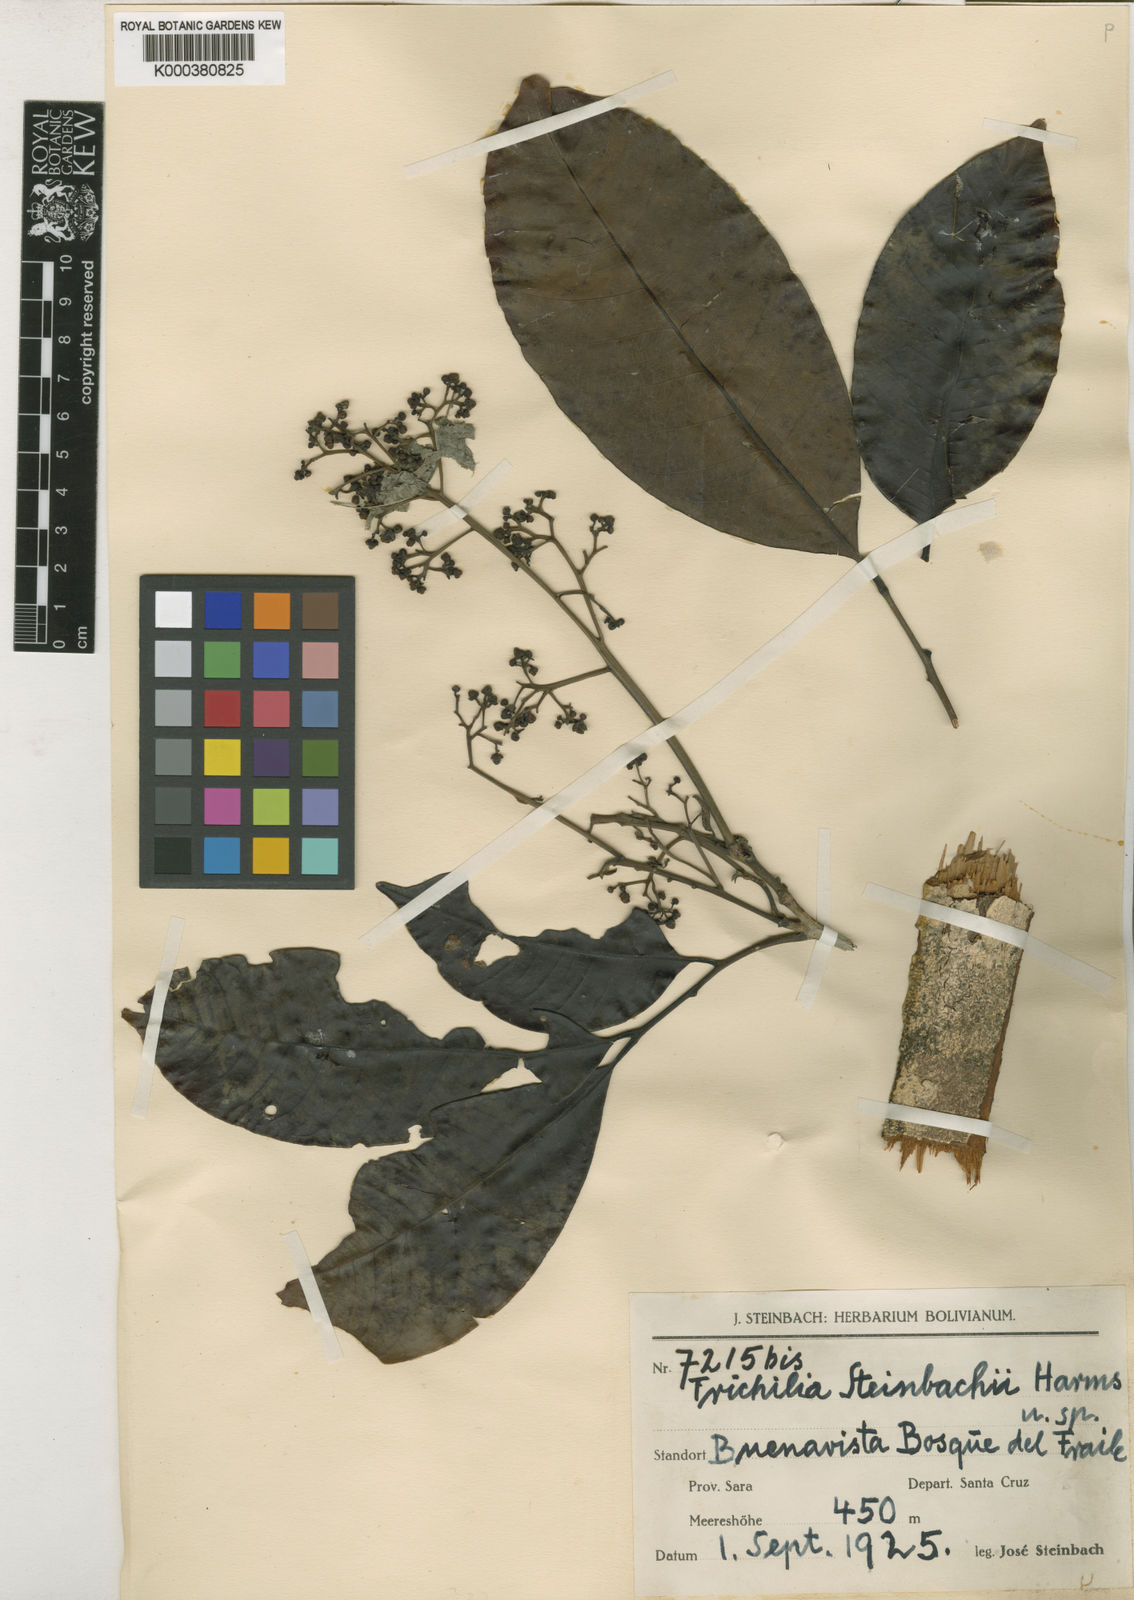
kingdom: Plantae
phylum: Tracheophyta
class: Magnoliopsida
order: Sapindales
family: Meliaceae
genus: Trichilia
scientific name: Trichilia pleeana
